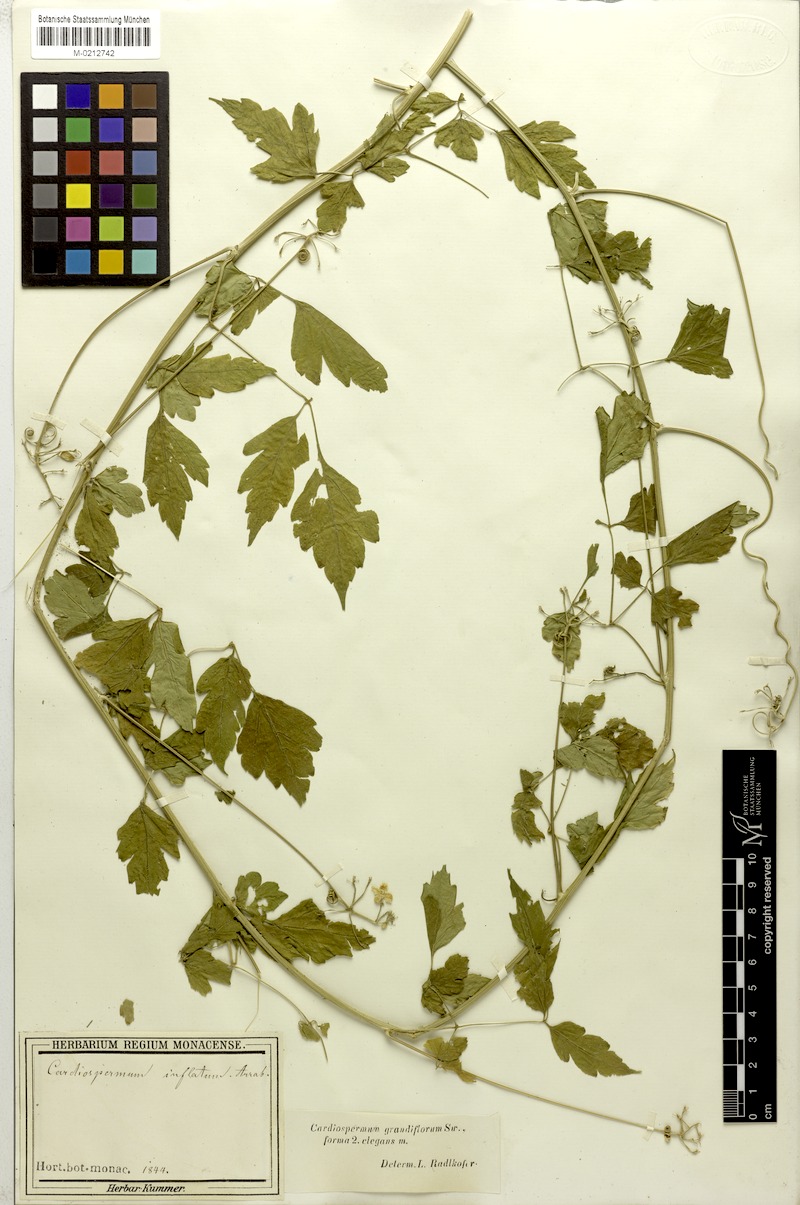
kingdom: Plantae
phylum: Tracheophyta
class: Magnoliopsida
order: Sapindales
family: Sapindaceae
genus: Cardiospermum
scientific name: Cardiospermum grandiflorum
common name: Balloon vine
